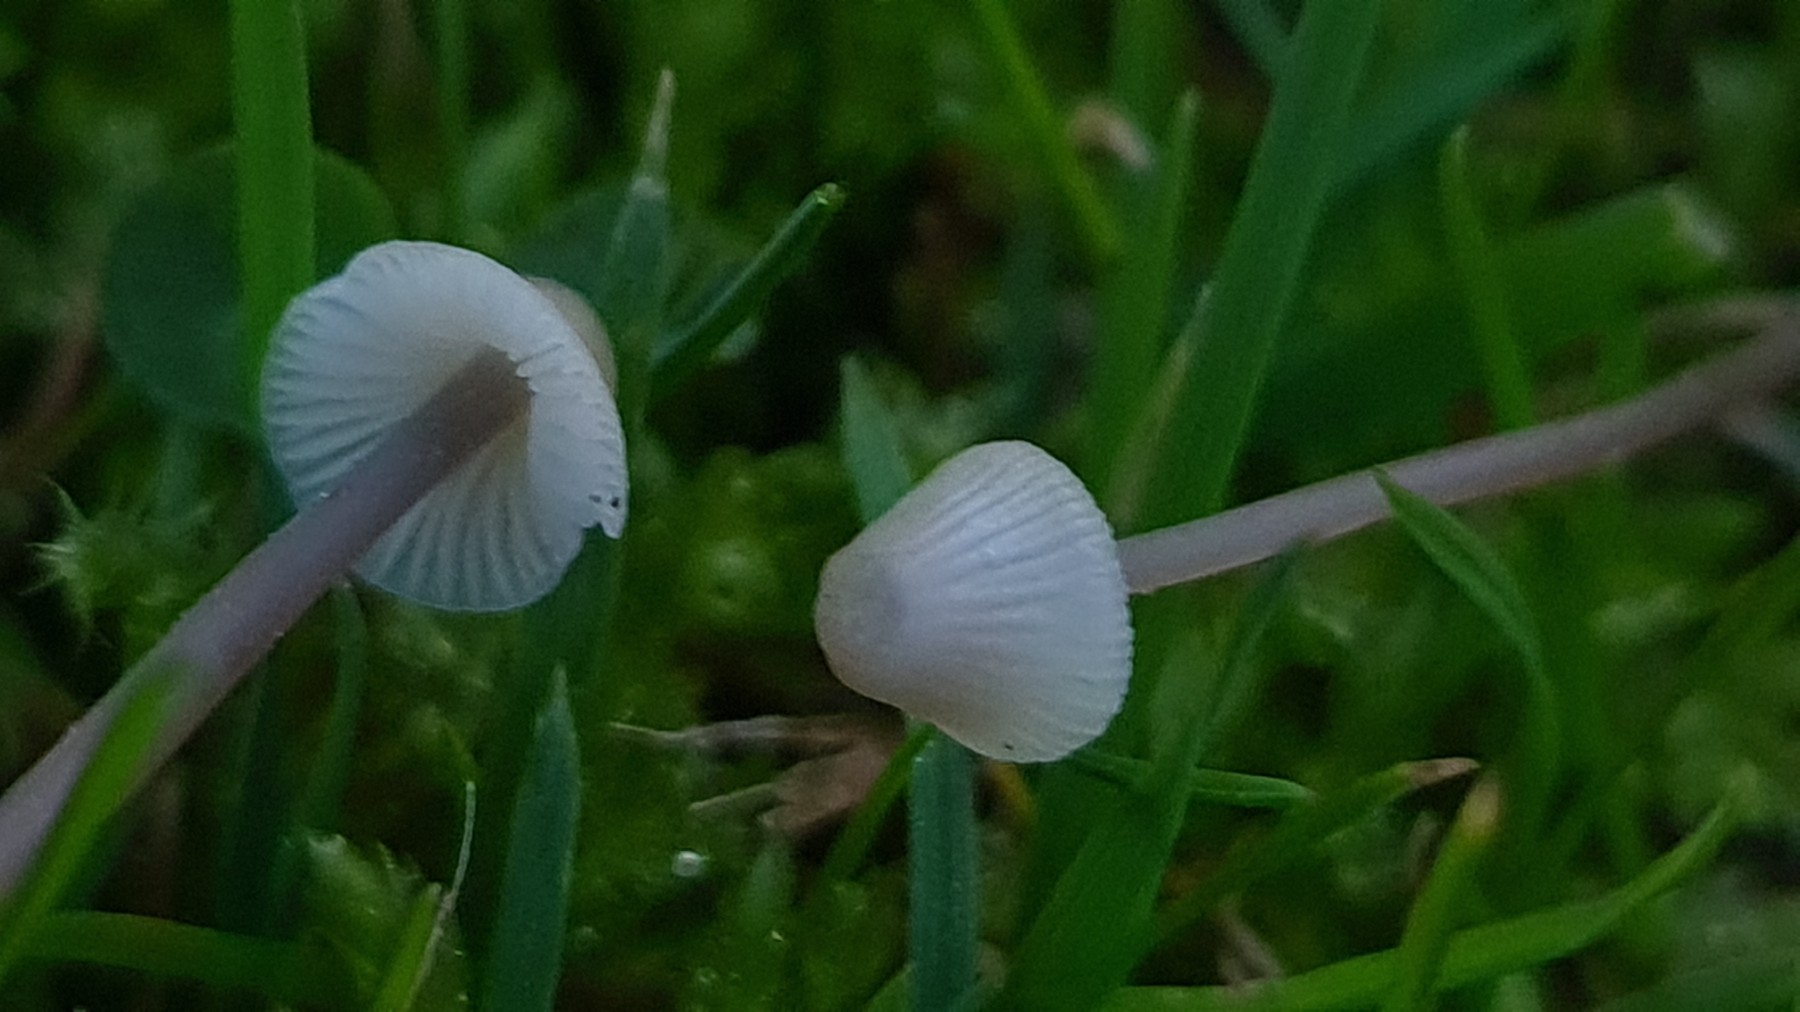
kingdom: Fungi
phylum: Basidiomycota
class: Agaricomycetes
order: Agaricales
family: Mycenaceae
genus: Mycena
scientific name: Mycena flavescens
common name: grågul huesvamp
